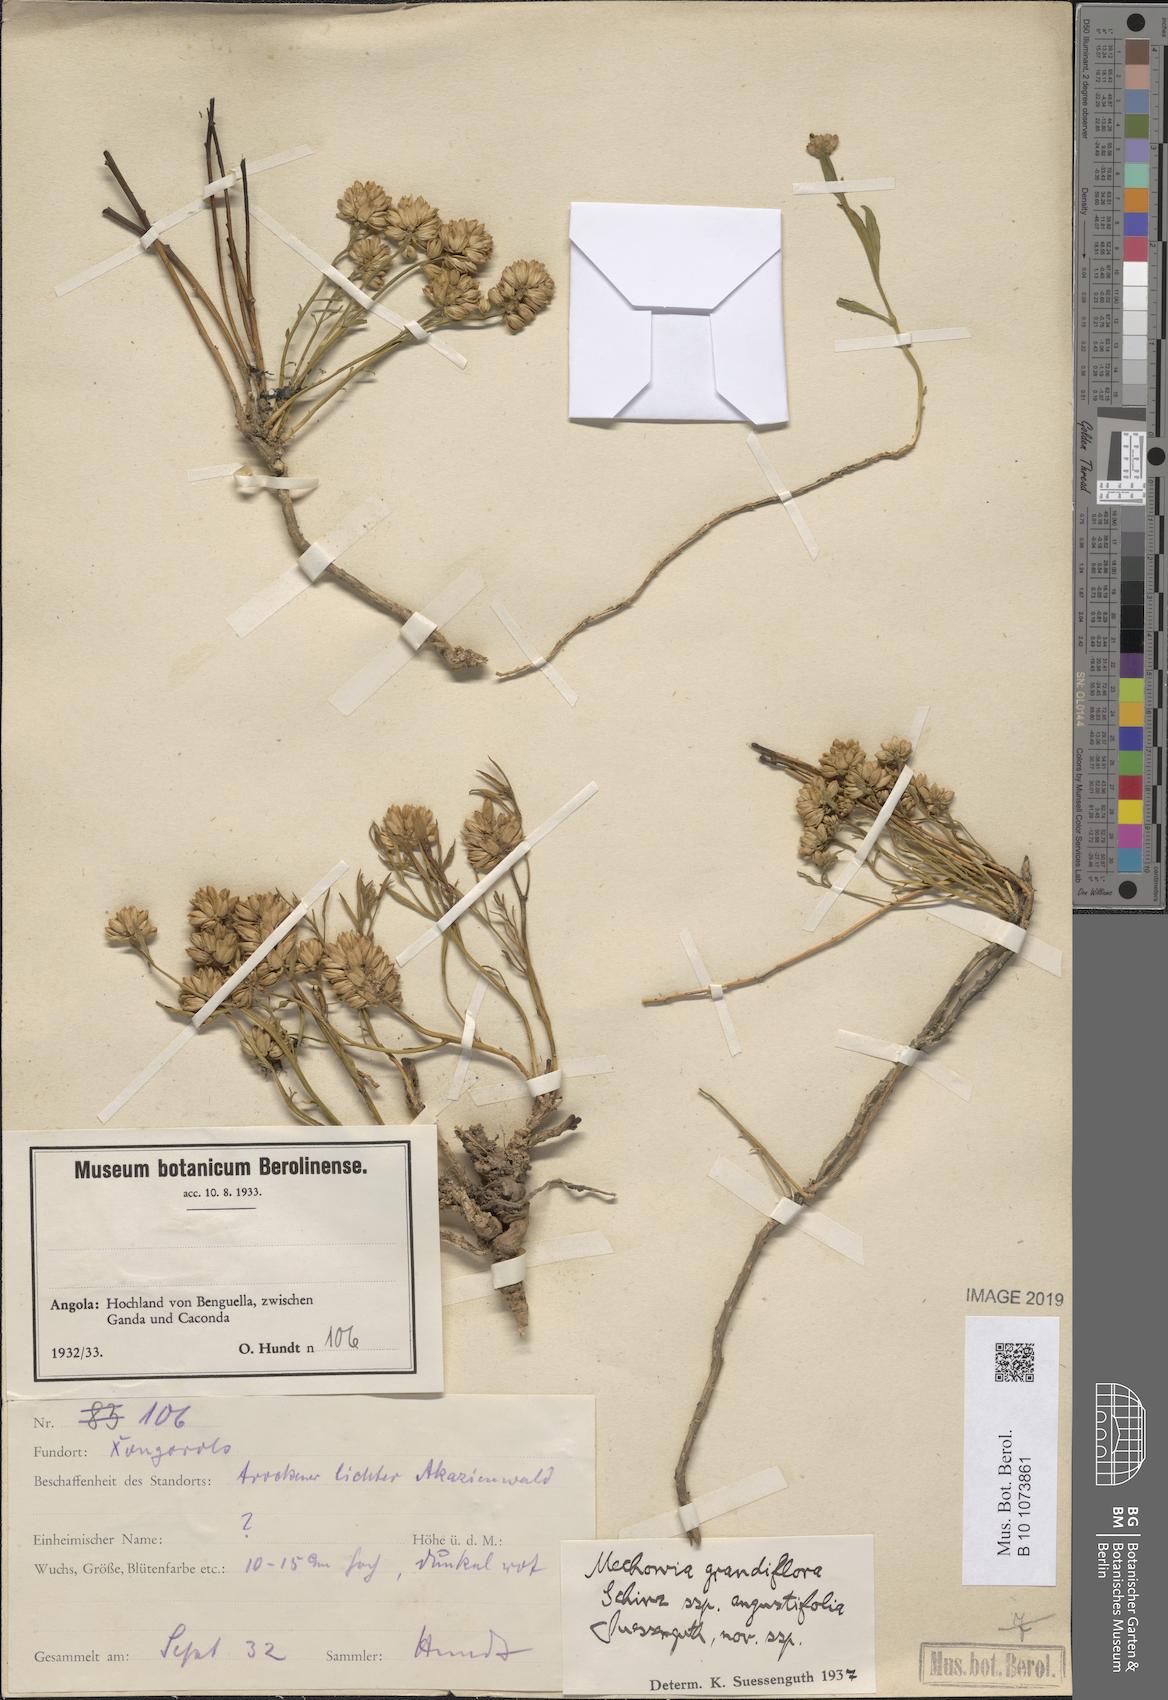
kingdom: Plantae
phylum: Tracheophyta
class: Magnoliopsida
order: Caryophyllales
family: Amaranthaceae
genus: Mechowia
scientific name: Mechowia grandiflora
